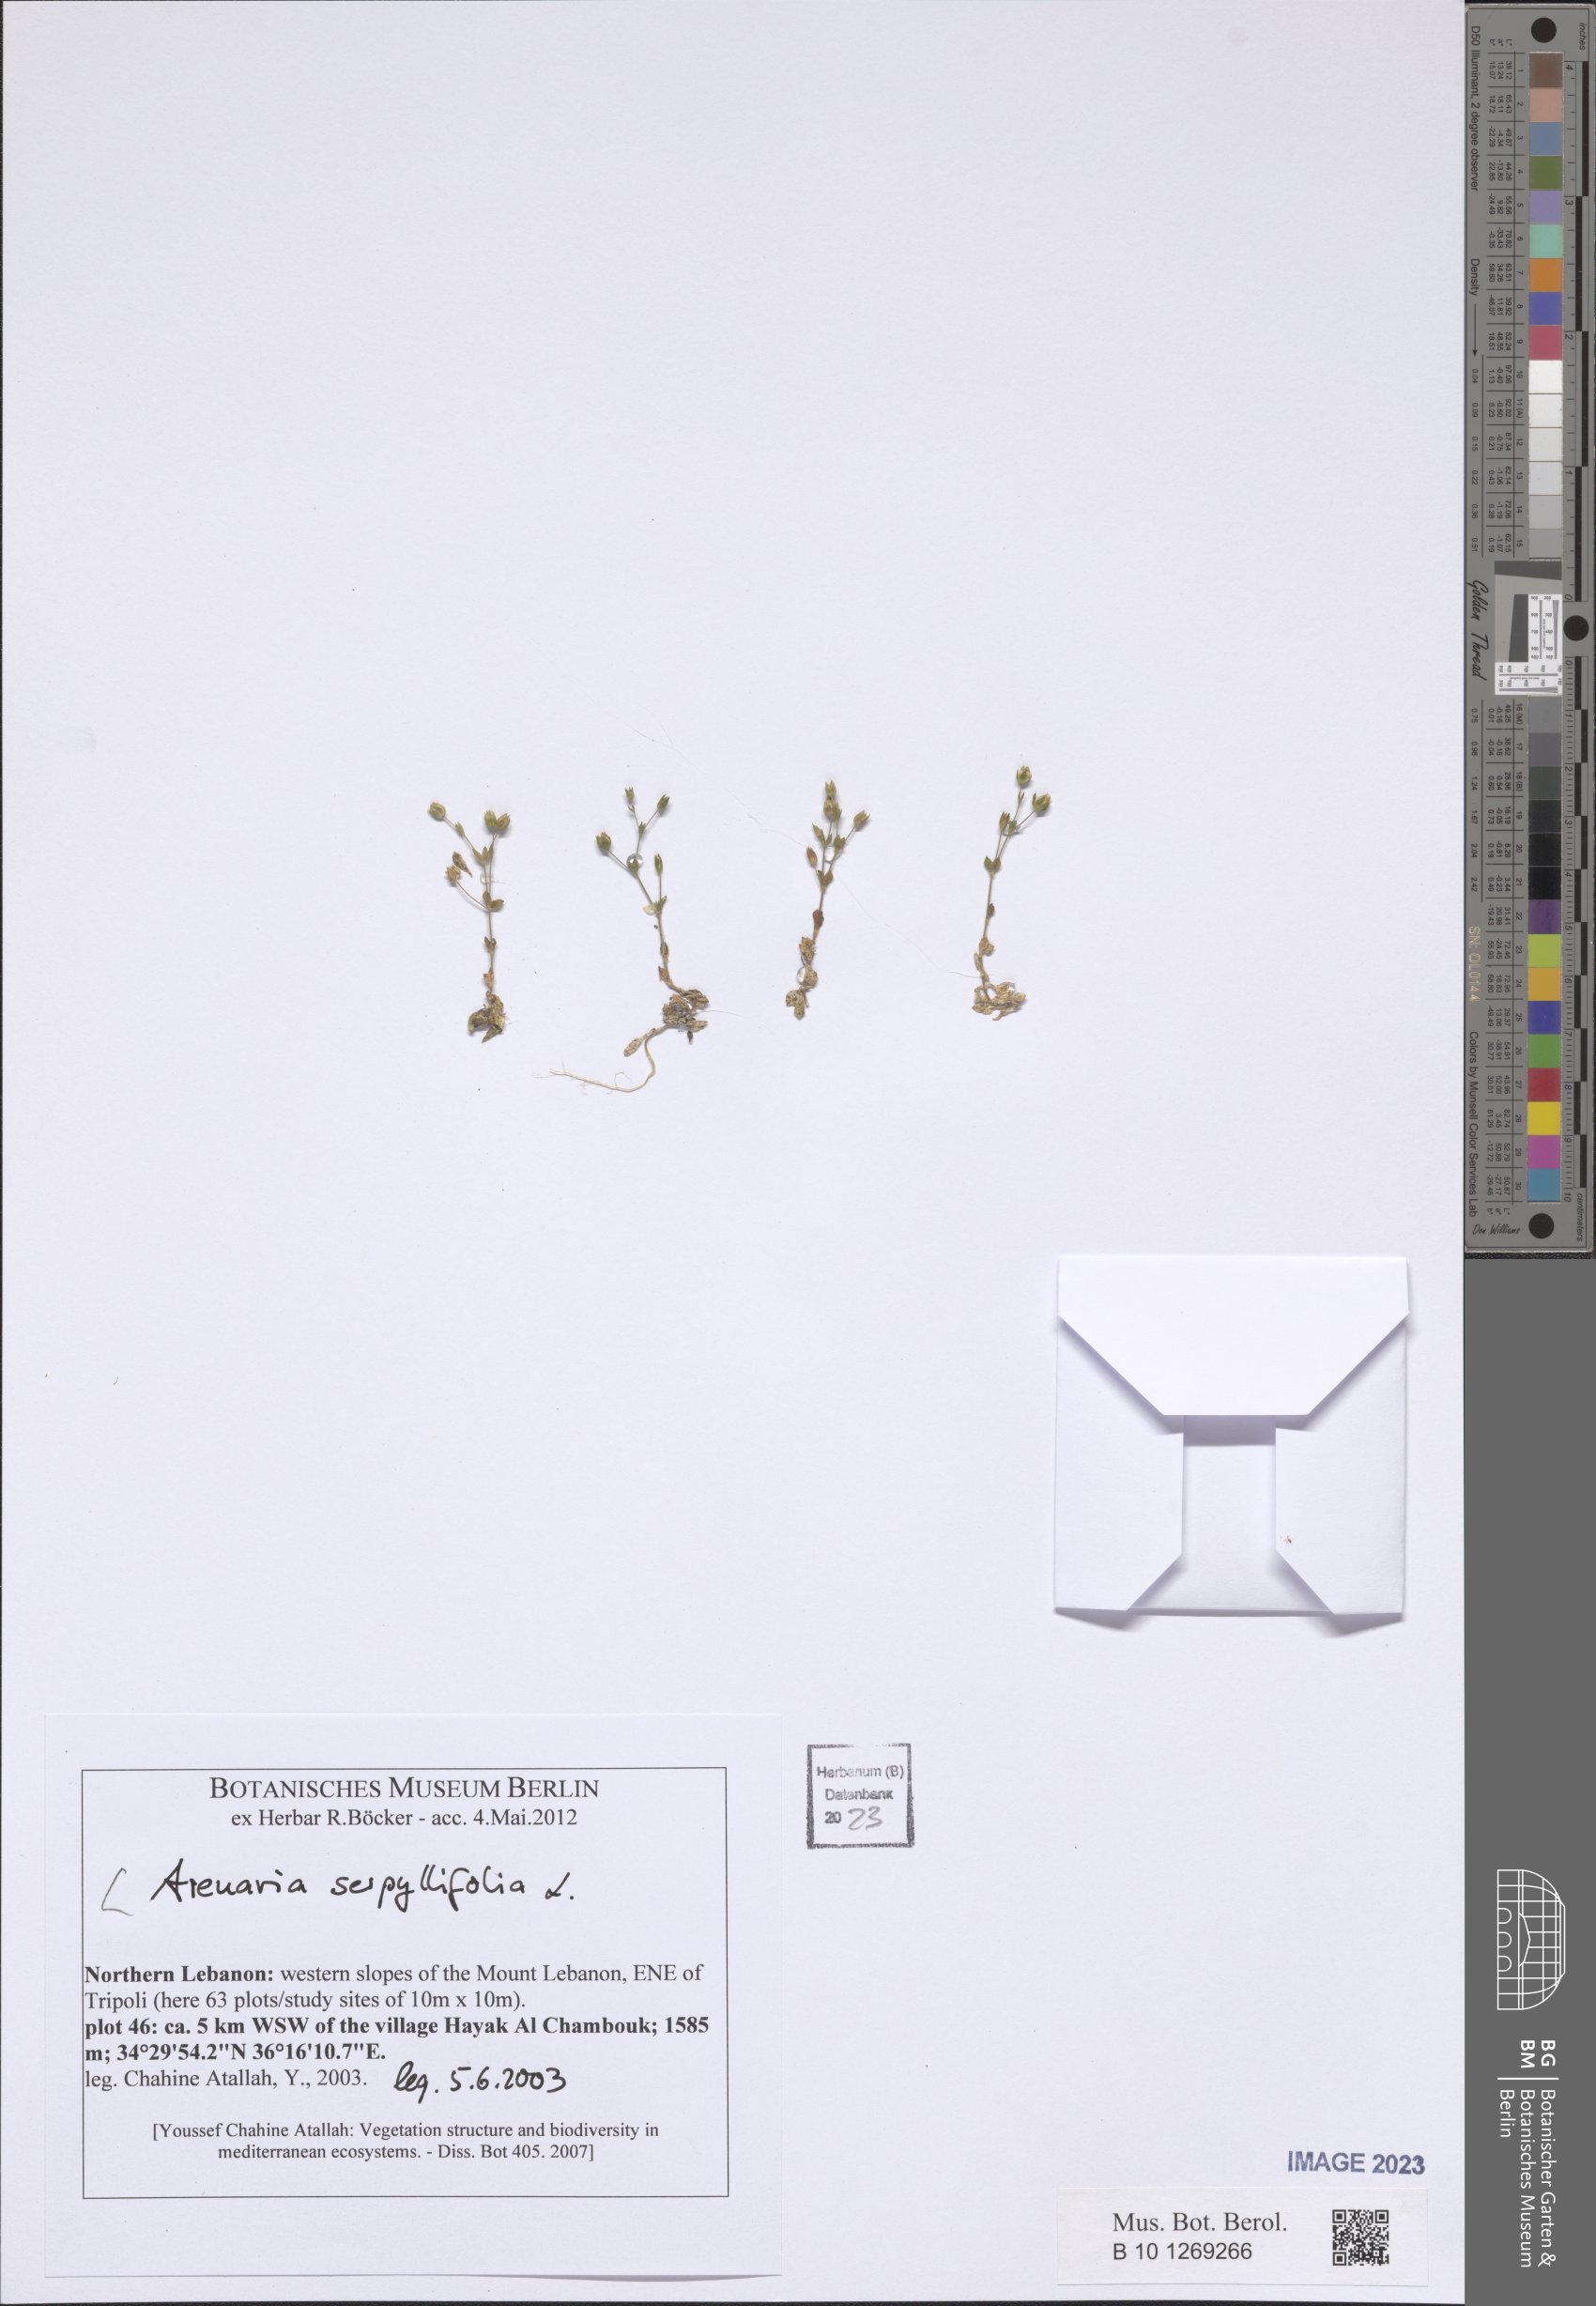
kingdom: Plantae
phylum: Tracheophyta
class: Magnoliopsida
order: Caryophyllales
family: Caryophyllaceae
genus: Arenaria
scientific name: Arenaria serpyllifolia
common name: Thyme-leaved sandwort
